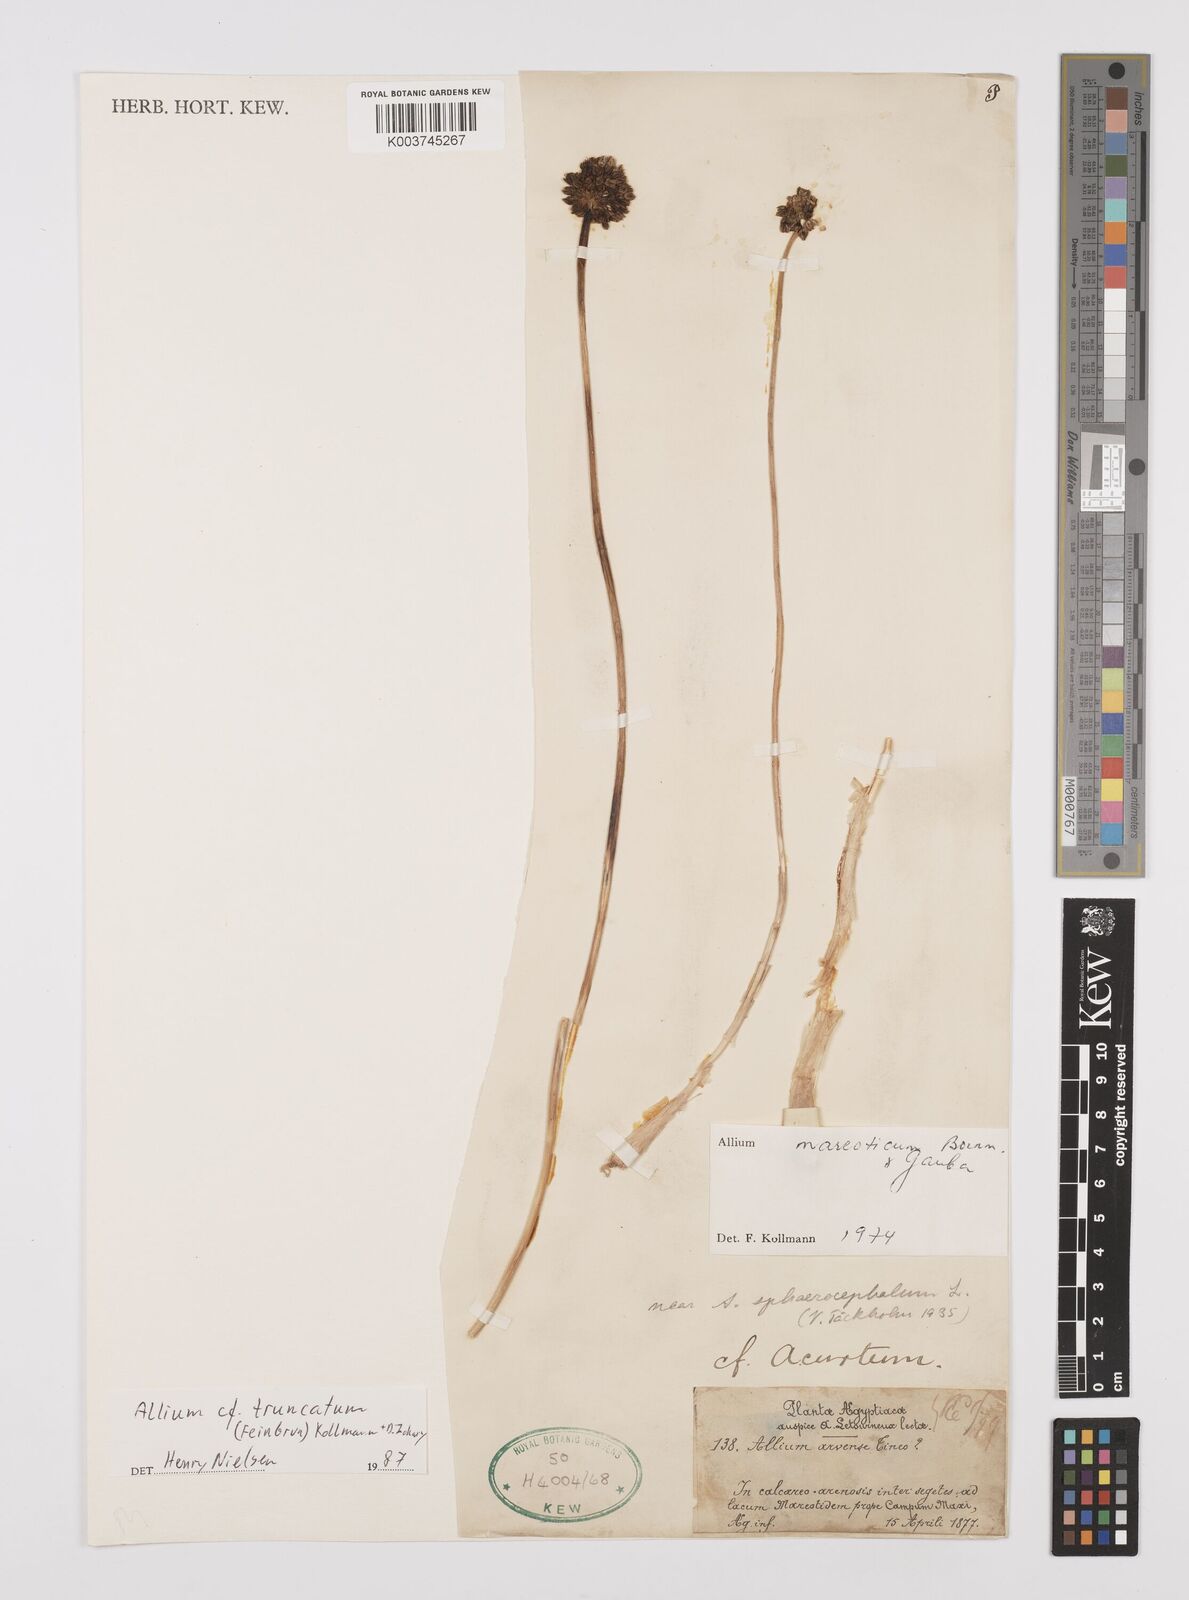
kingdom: Plantae
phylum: Tracheophyta
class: Liliopsida
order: Asparagales
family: Amaryllidaceae
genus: Allium
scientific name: Allium truncatum
